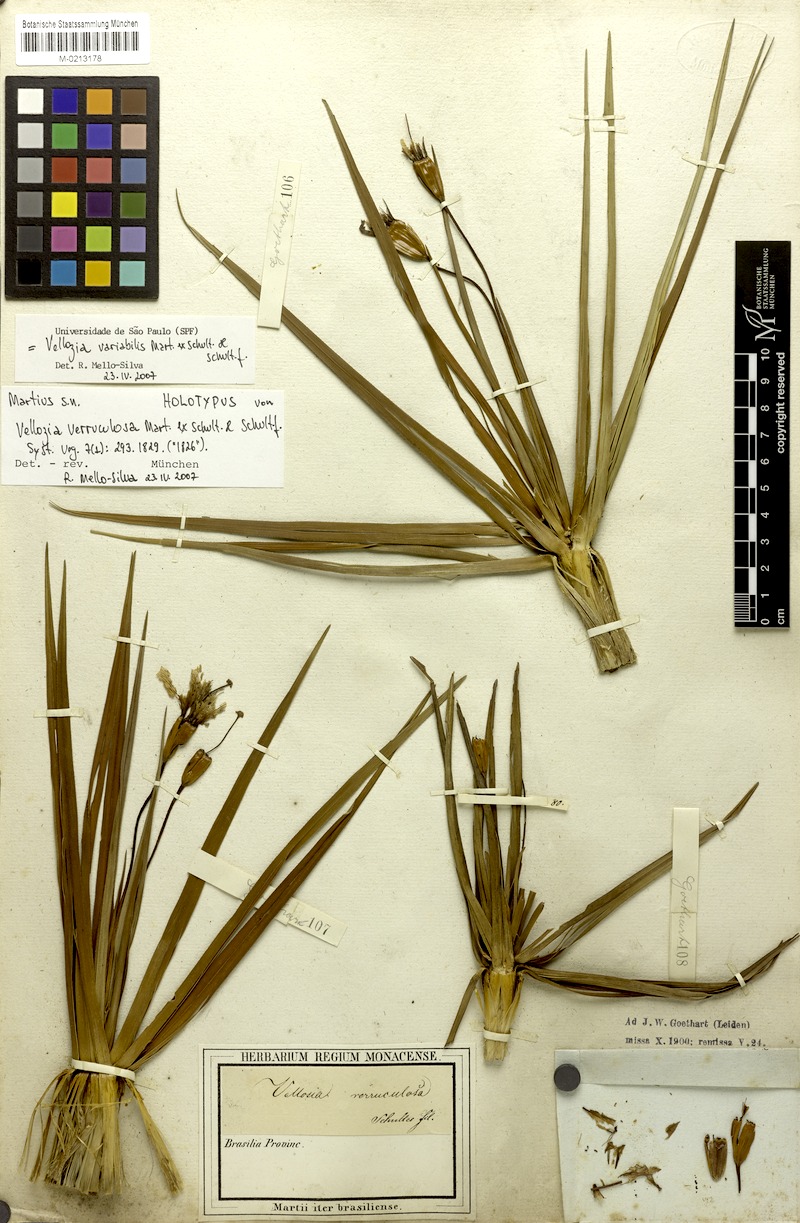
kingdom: Plantae
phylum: Tracheophyta
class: Liliopsida
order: Pandanales
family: Velloziaceae
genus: Vellozia
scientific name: Vellozia variabilis
